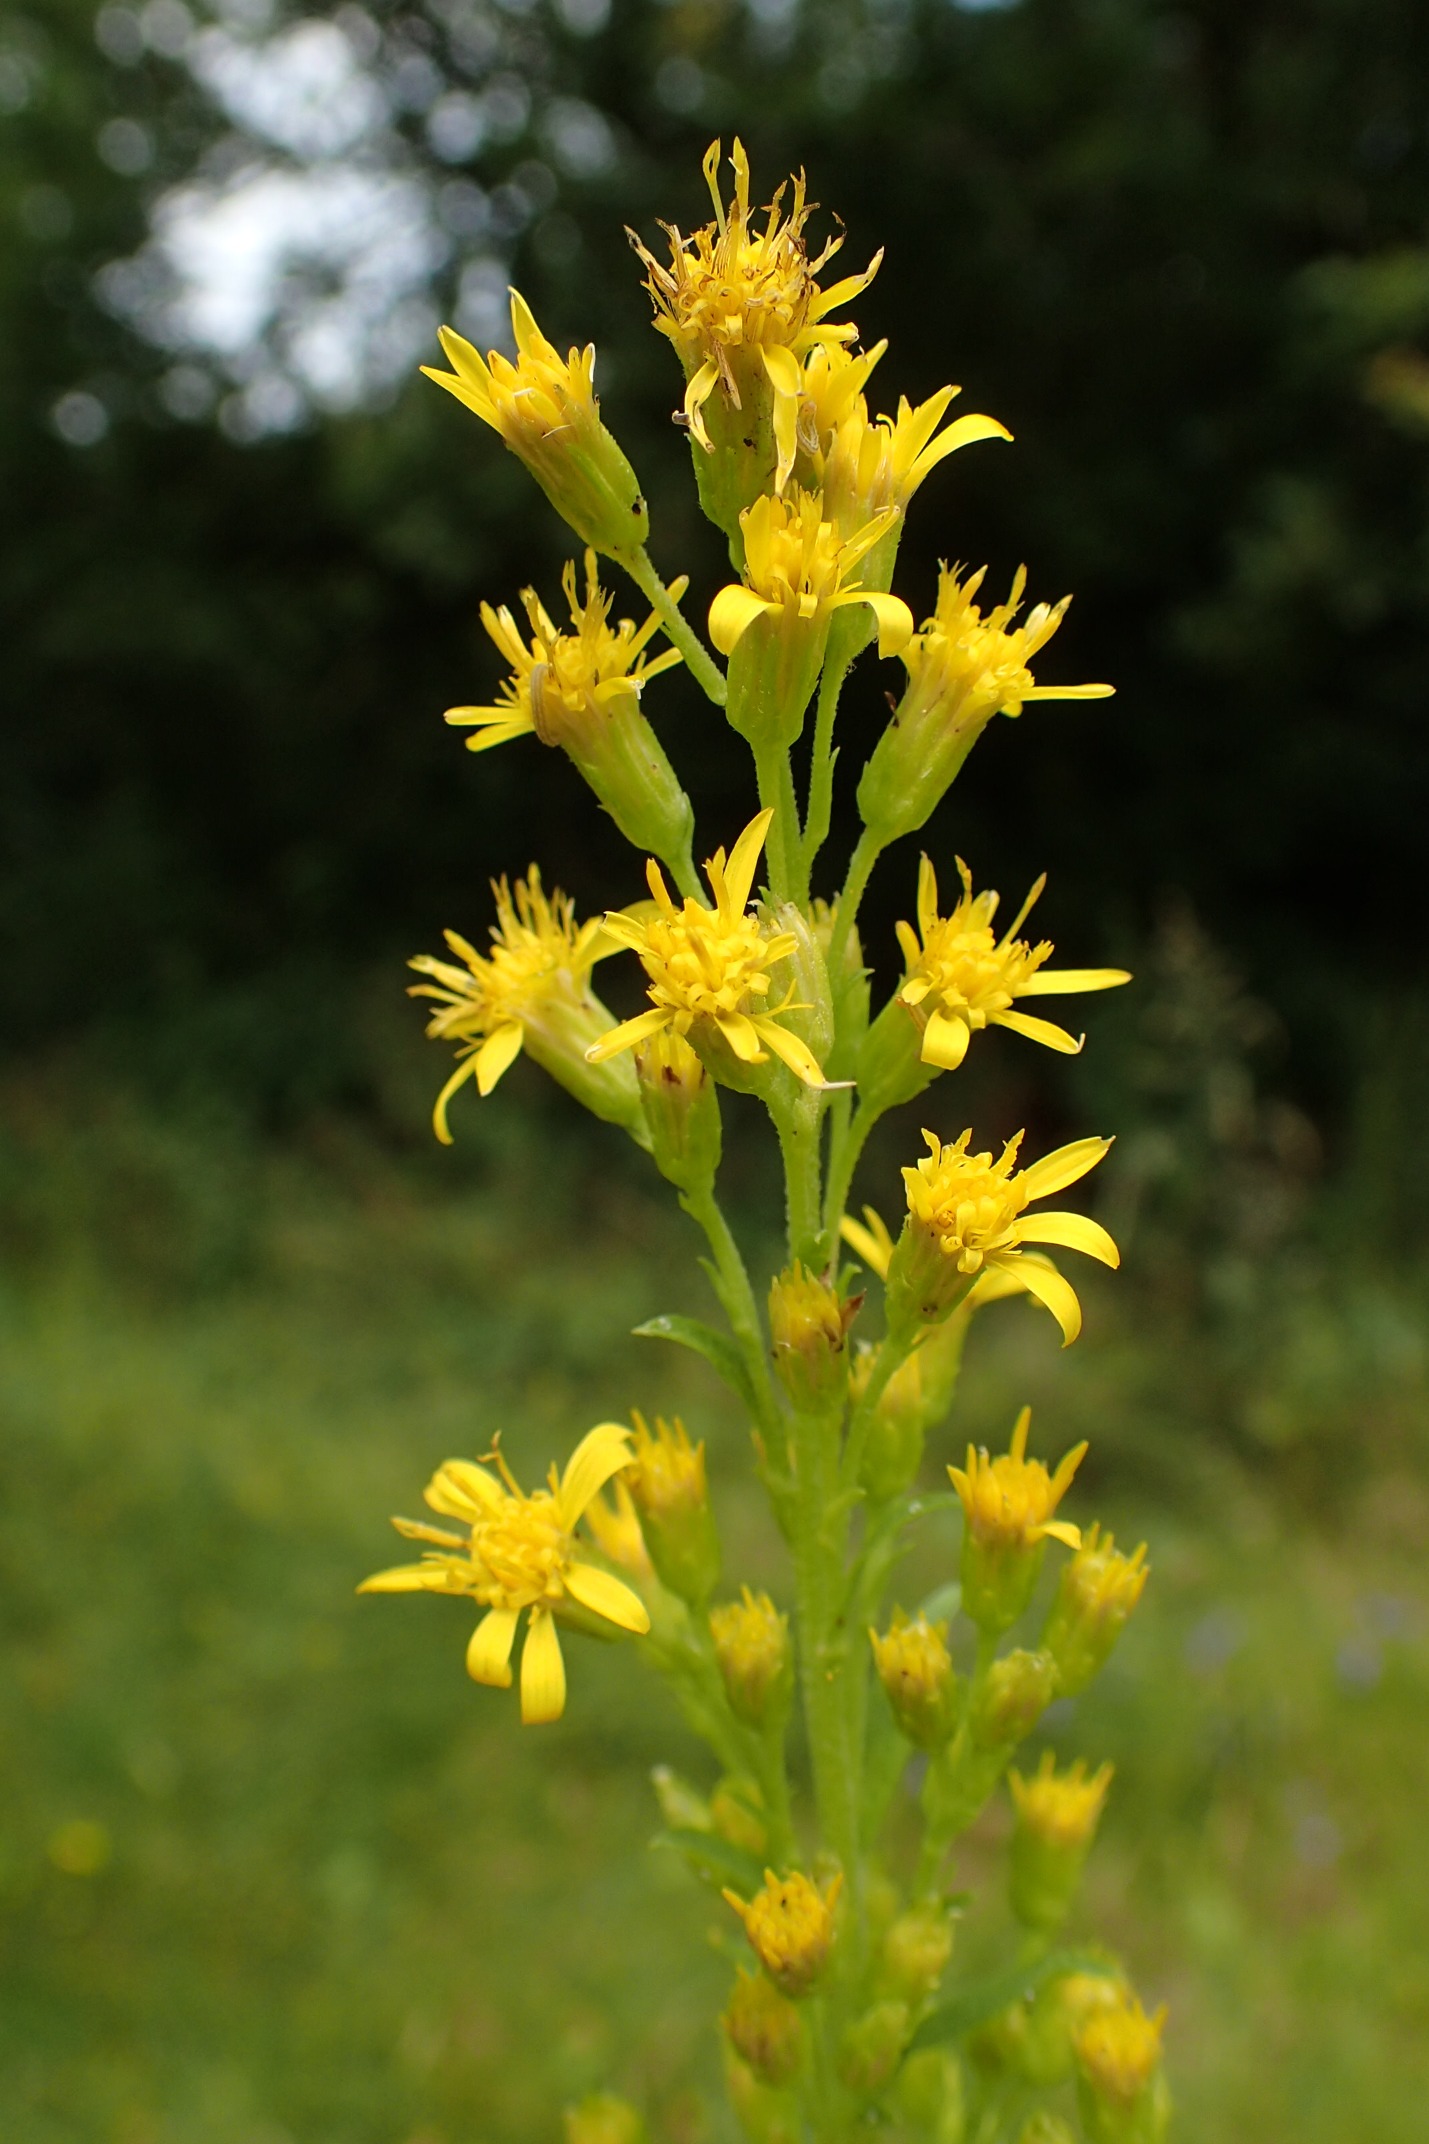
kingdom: Plantae
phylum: Tracheophyta
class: Magnoliopsida
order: Asterales
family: Asteraceae
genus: Solidago
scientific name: Solidago virgaurea
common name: Almindelig gyldenris
